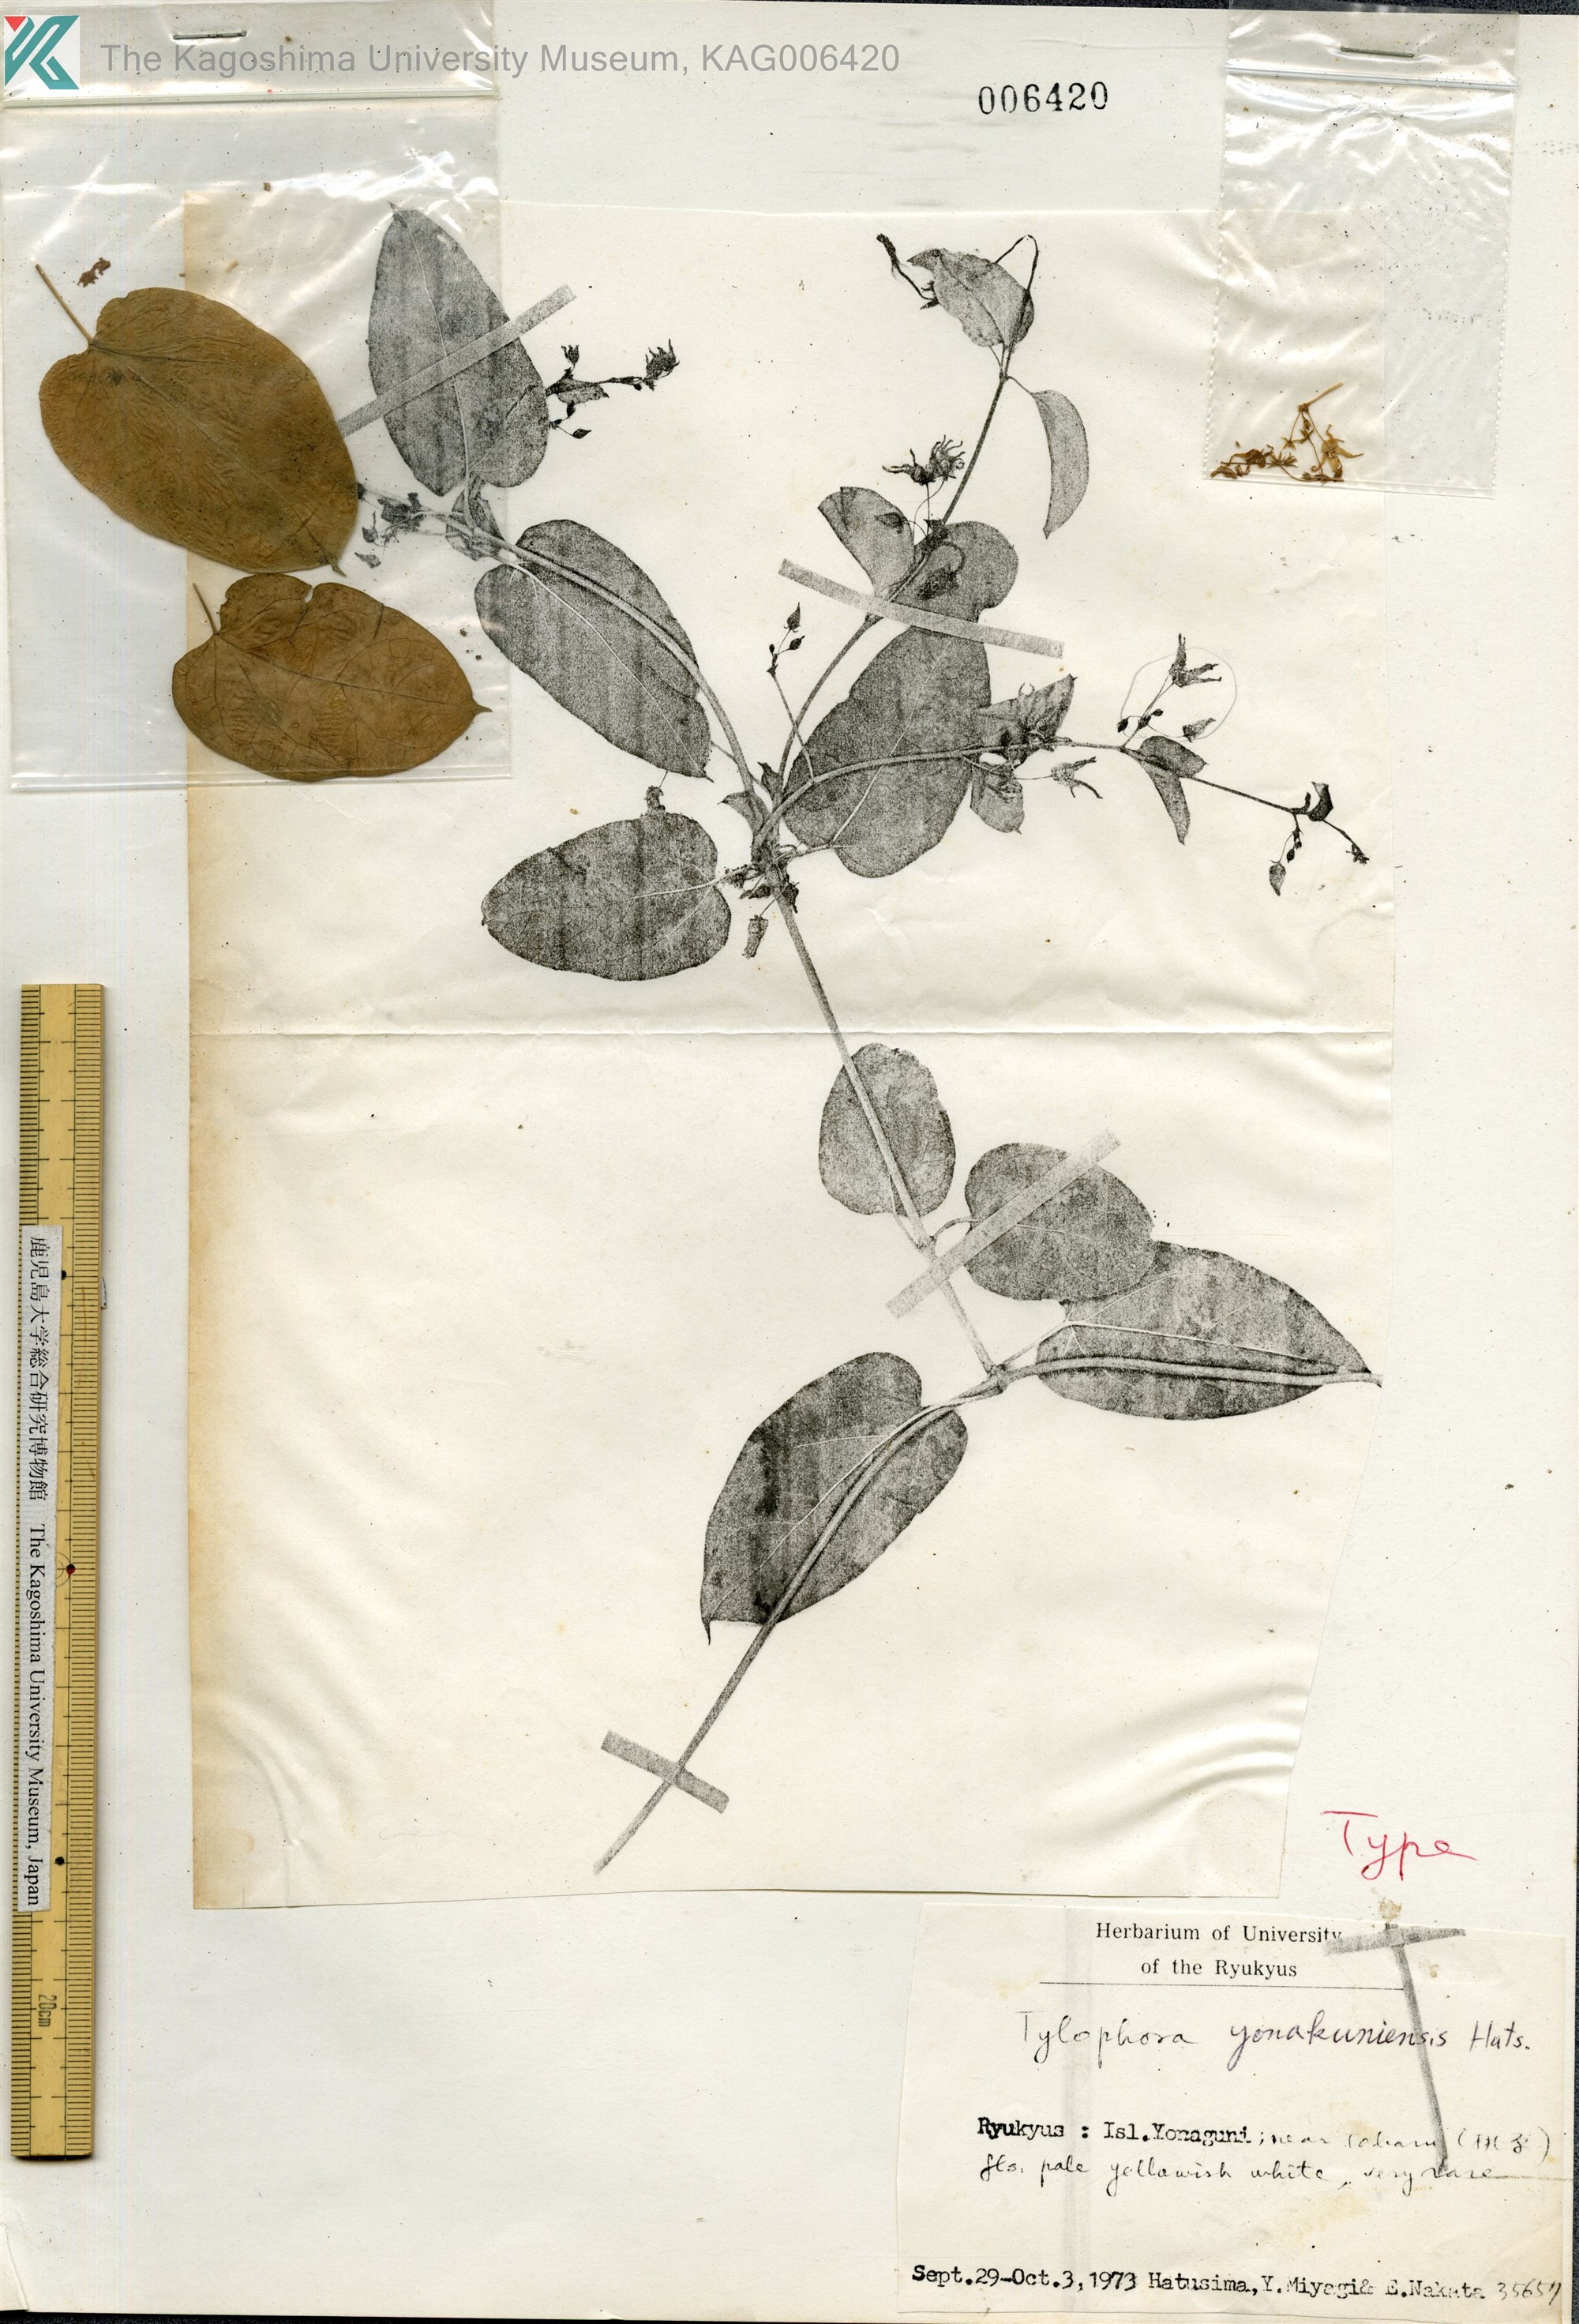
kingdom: Plantae
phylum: Tracheophyta
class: Magnoliopsida
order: Gentianales
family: Apocynaceae
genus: Vincetoxicum
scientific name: Vincetoxicum
